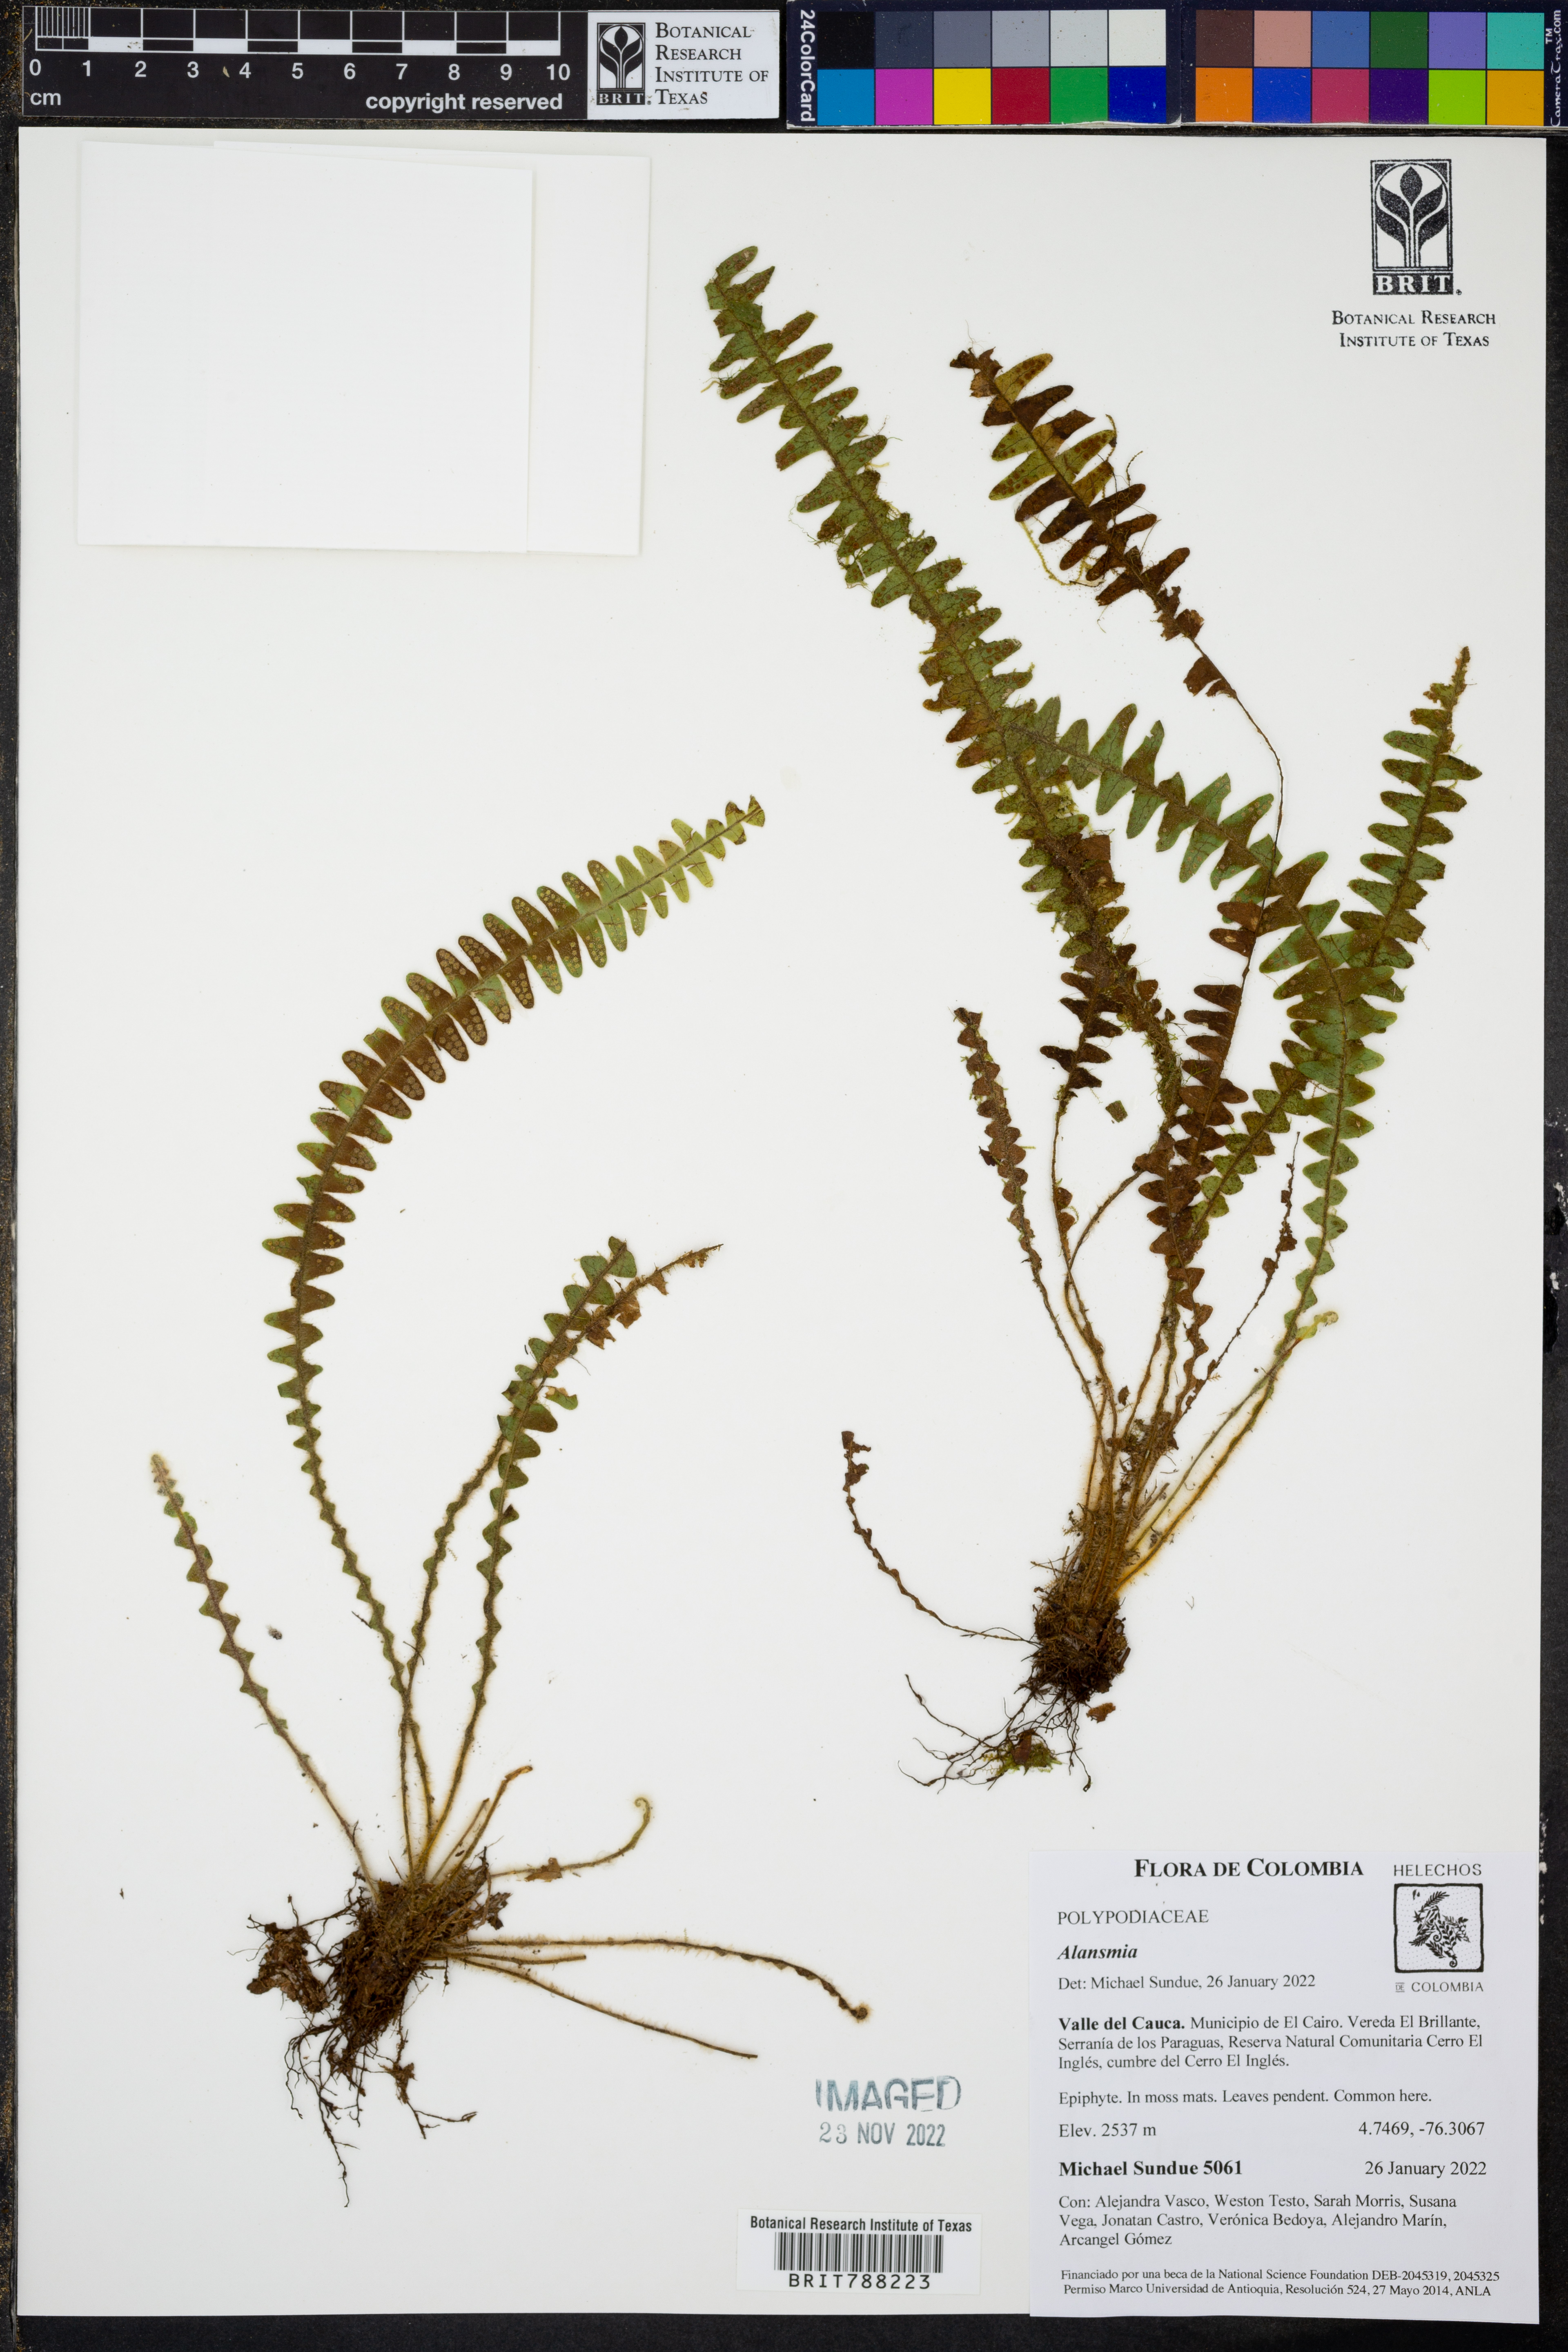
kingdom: Plantae
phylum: Tracheophyta
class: Polypodiopsida
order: Polypodiales
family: Polypodiaceae
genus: Alansmia
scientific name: Alansmia laxa
